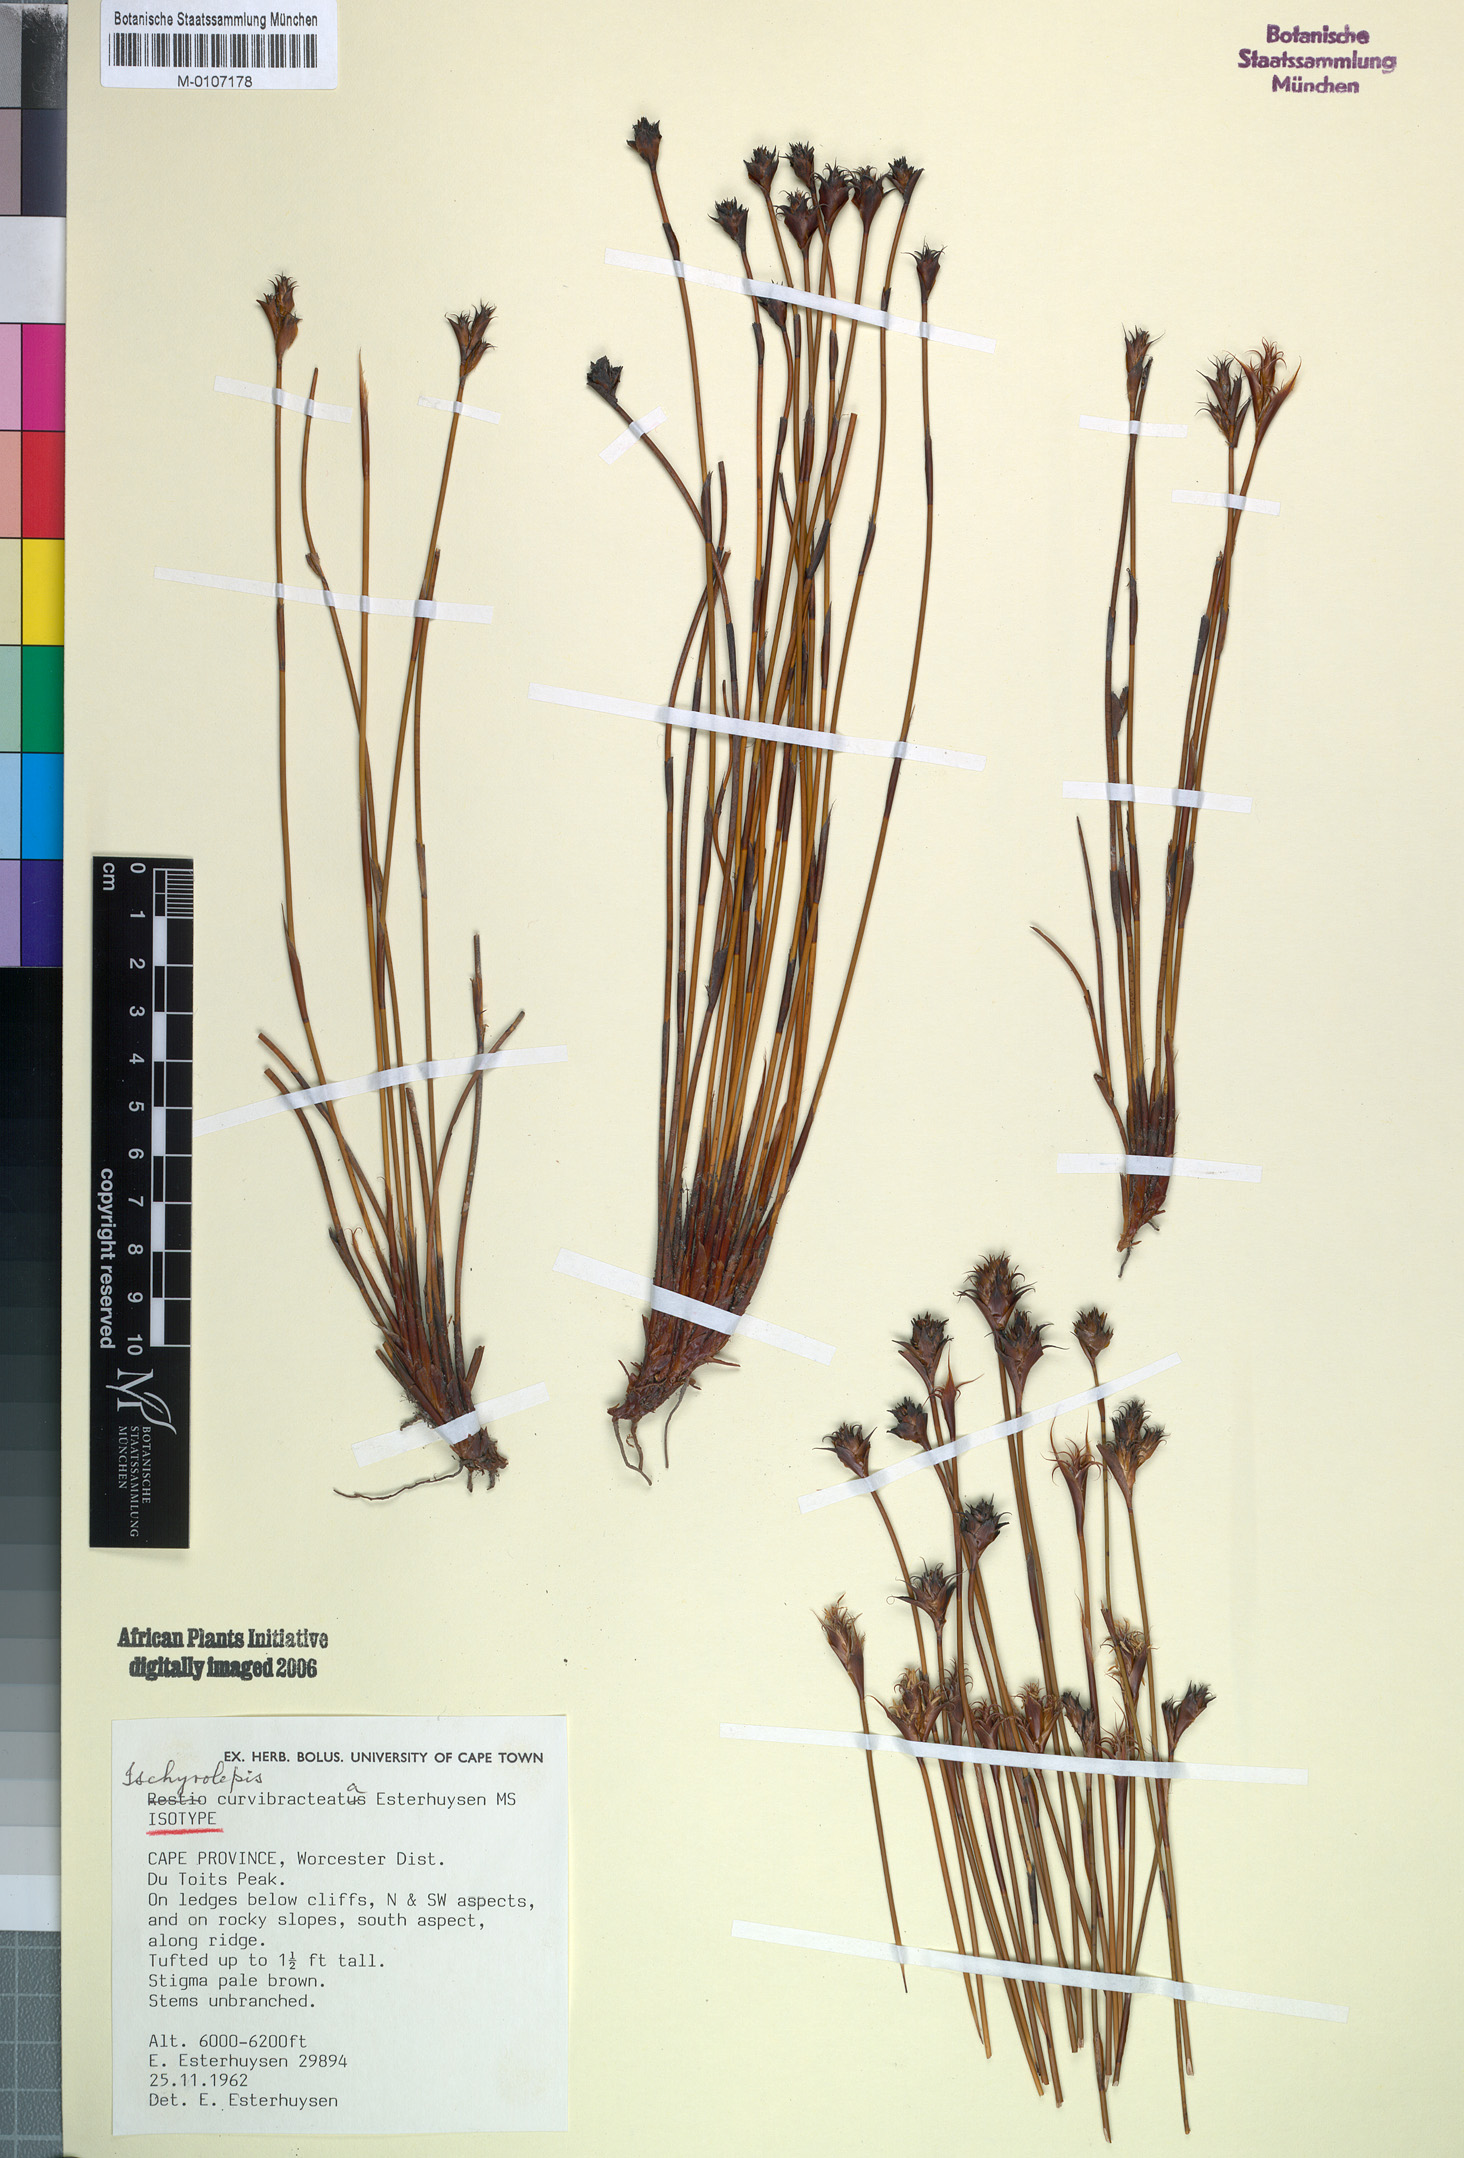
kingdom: Plantae
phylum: Tracheophyta
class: Liliopsida
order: Poales
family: Restionaceae
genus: Restio
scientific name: Restio curvibracteatus
